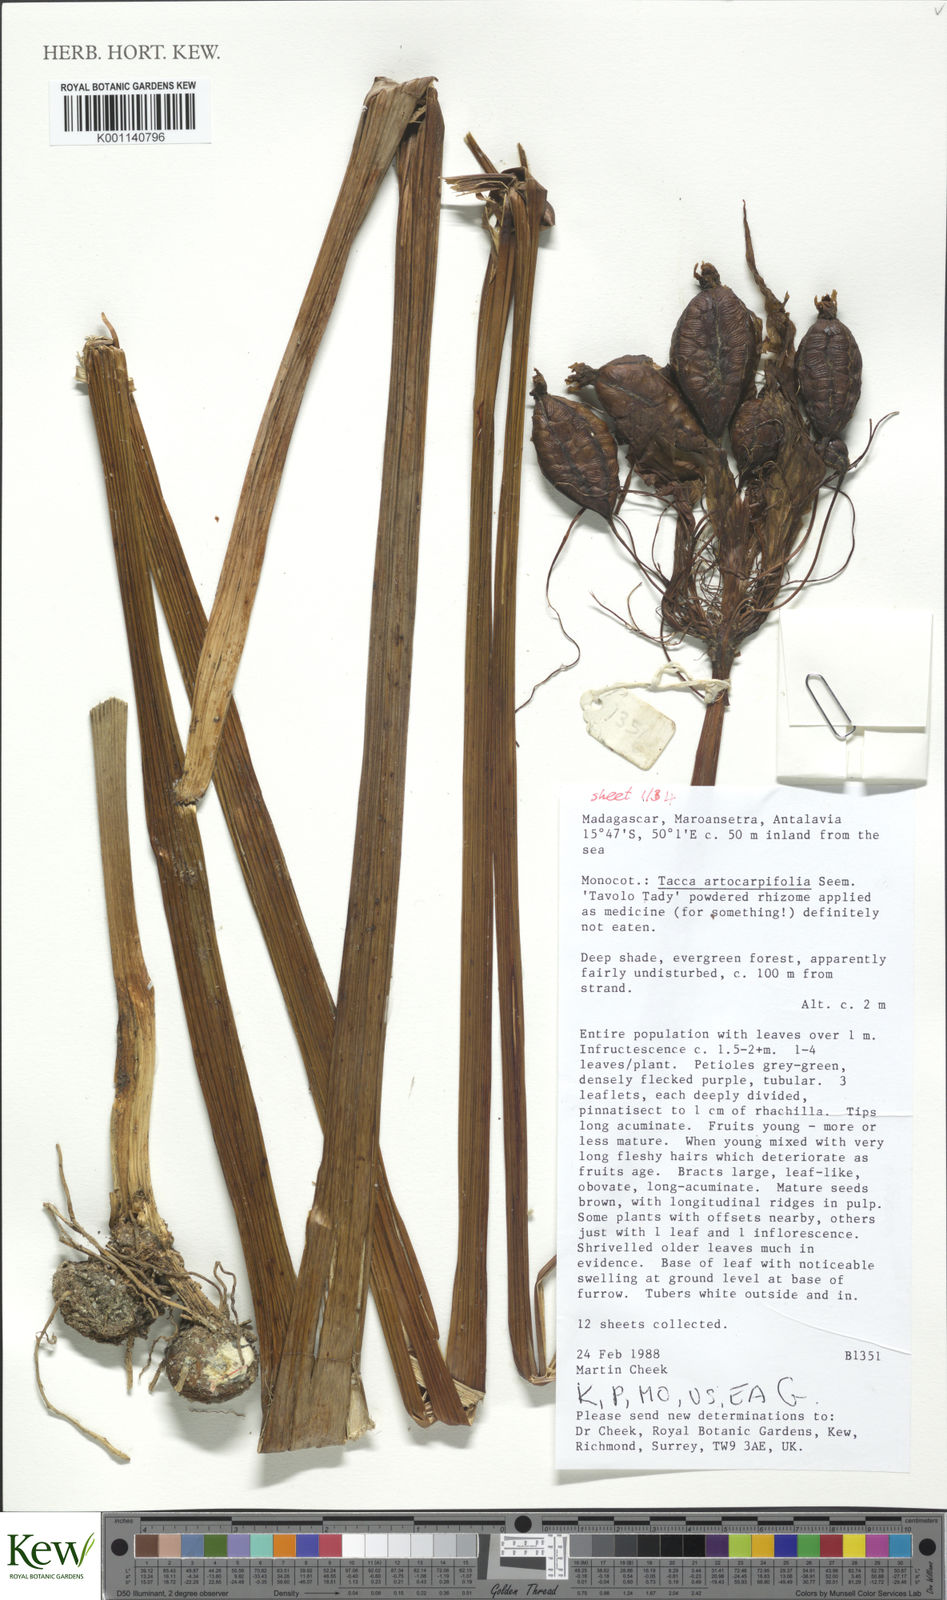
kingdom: Plantae
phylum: Tracheophyta
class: Liliopsida
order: Dioscoreales
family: Dioscoreaceae
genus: Tacca
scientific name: Tacca leontopetaloides
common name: Arrowroot
